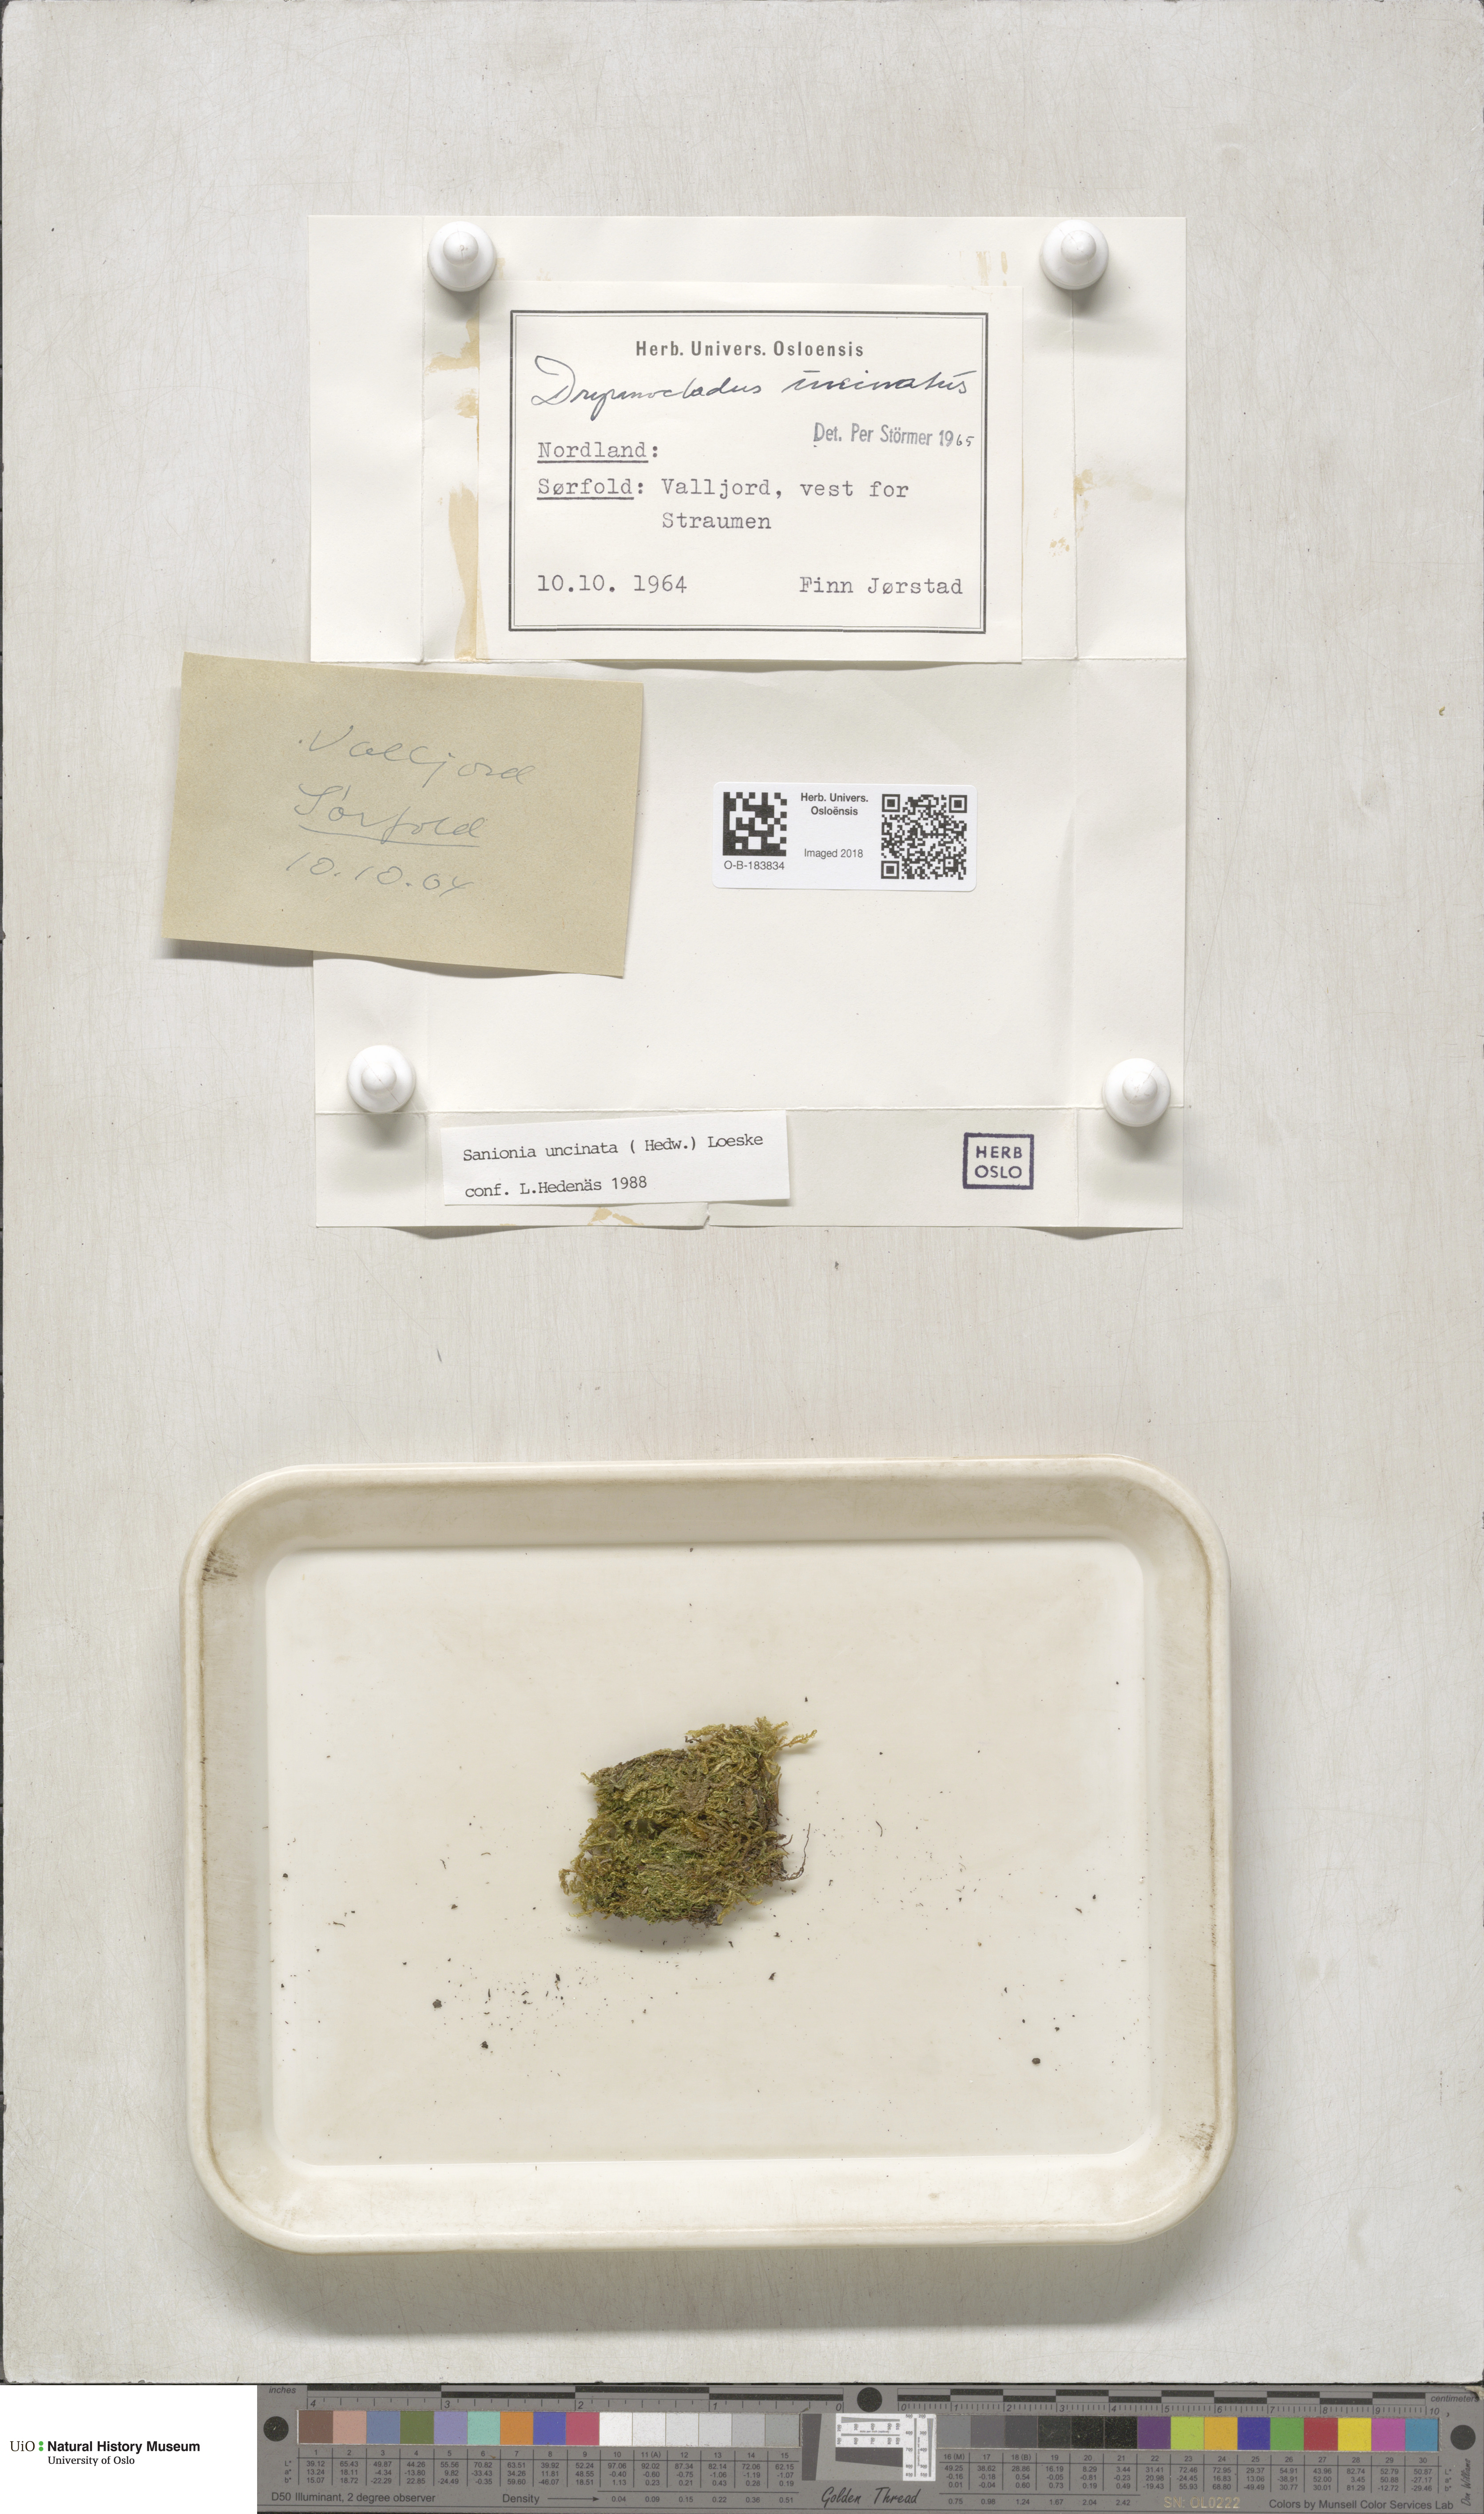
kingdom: Plantae
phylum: Bryophyta
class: Bryopsida
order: Hypnales
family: Scorpidiaceae
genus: Sanionia
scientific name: Sanionia uncinata
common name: Sickle moss
